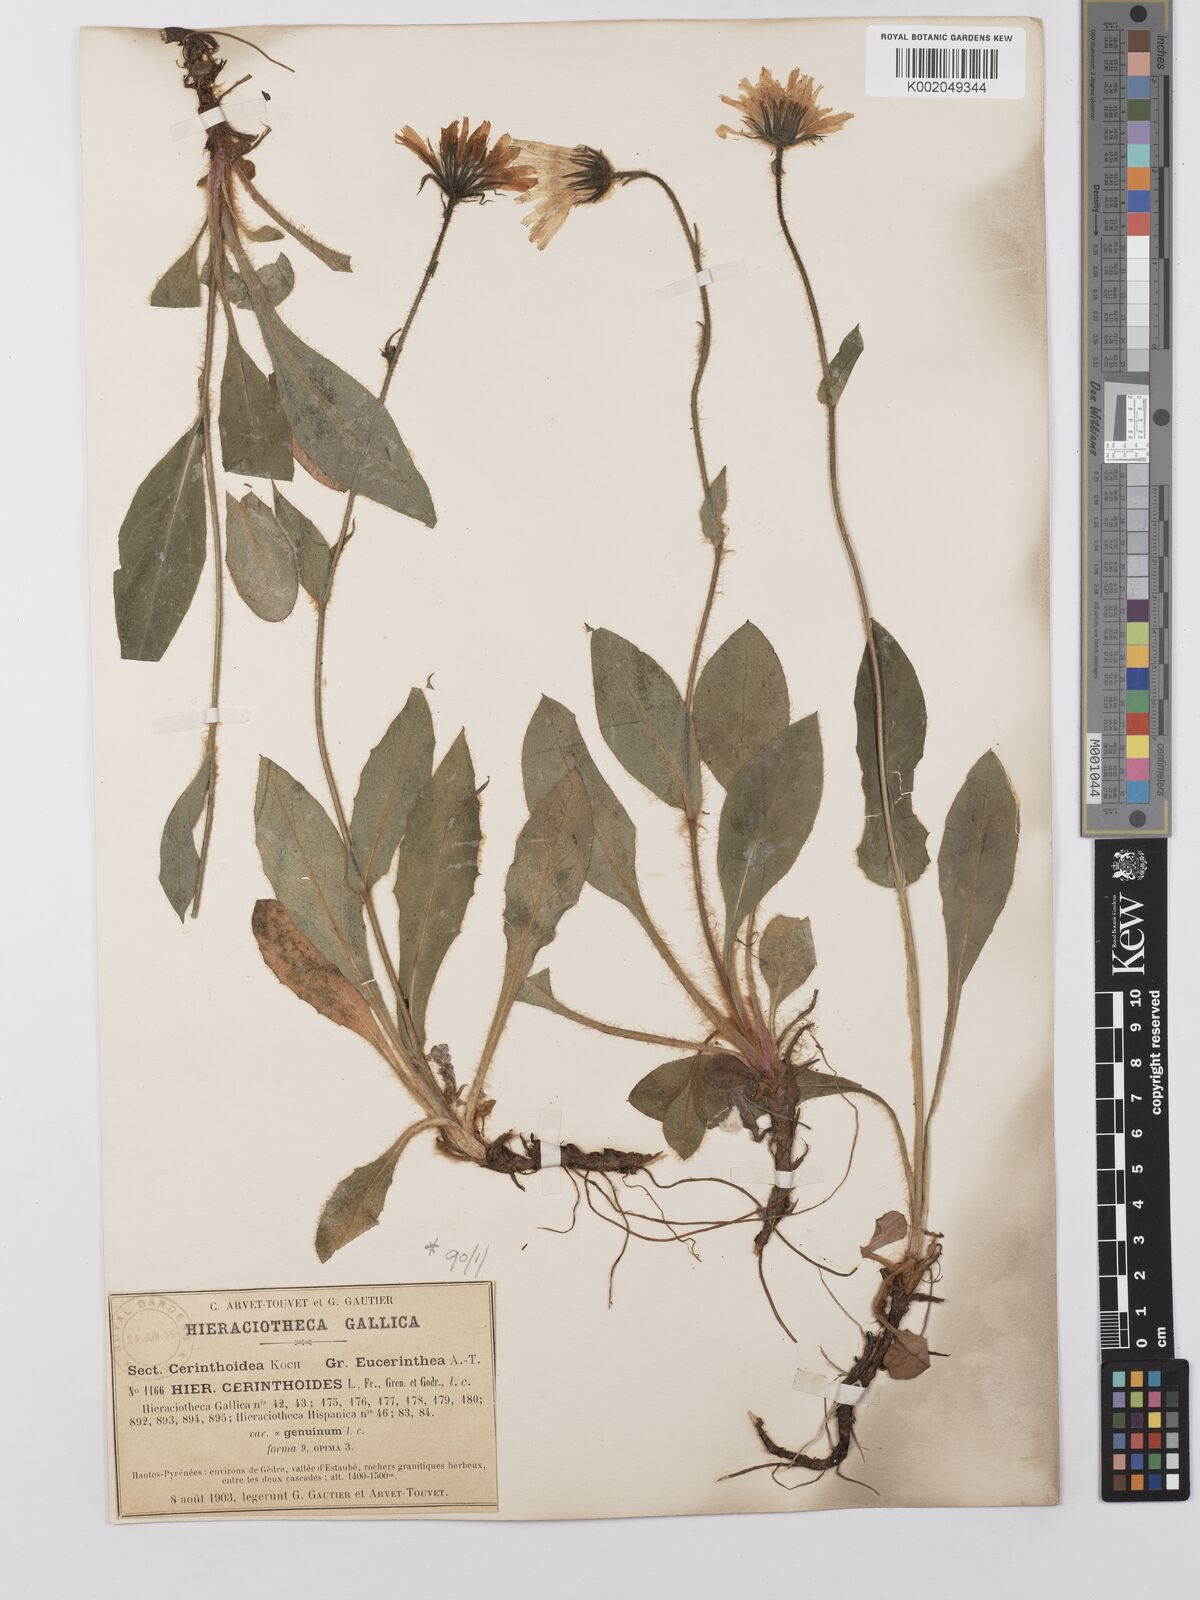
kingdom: Plantae
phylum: Tracheophyta
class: Magnoliopsida
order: Asterales
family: Asteraceae
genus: Hieracium
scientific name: Hieracium cerinthoides
